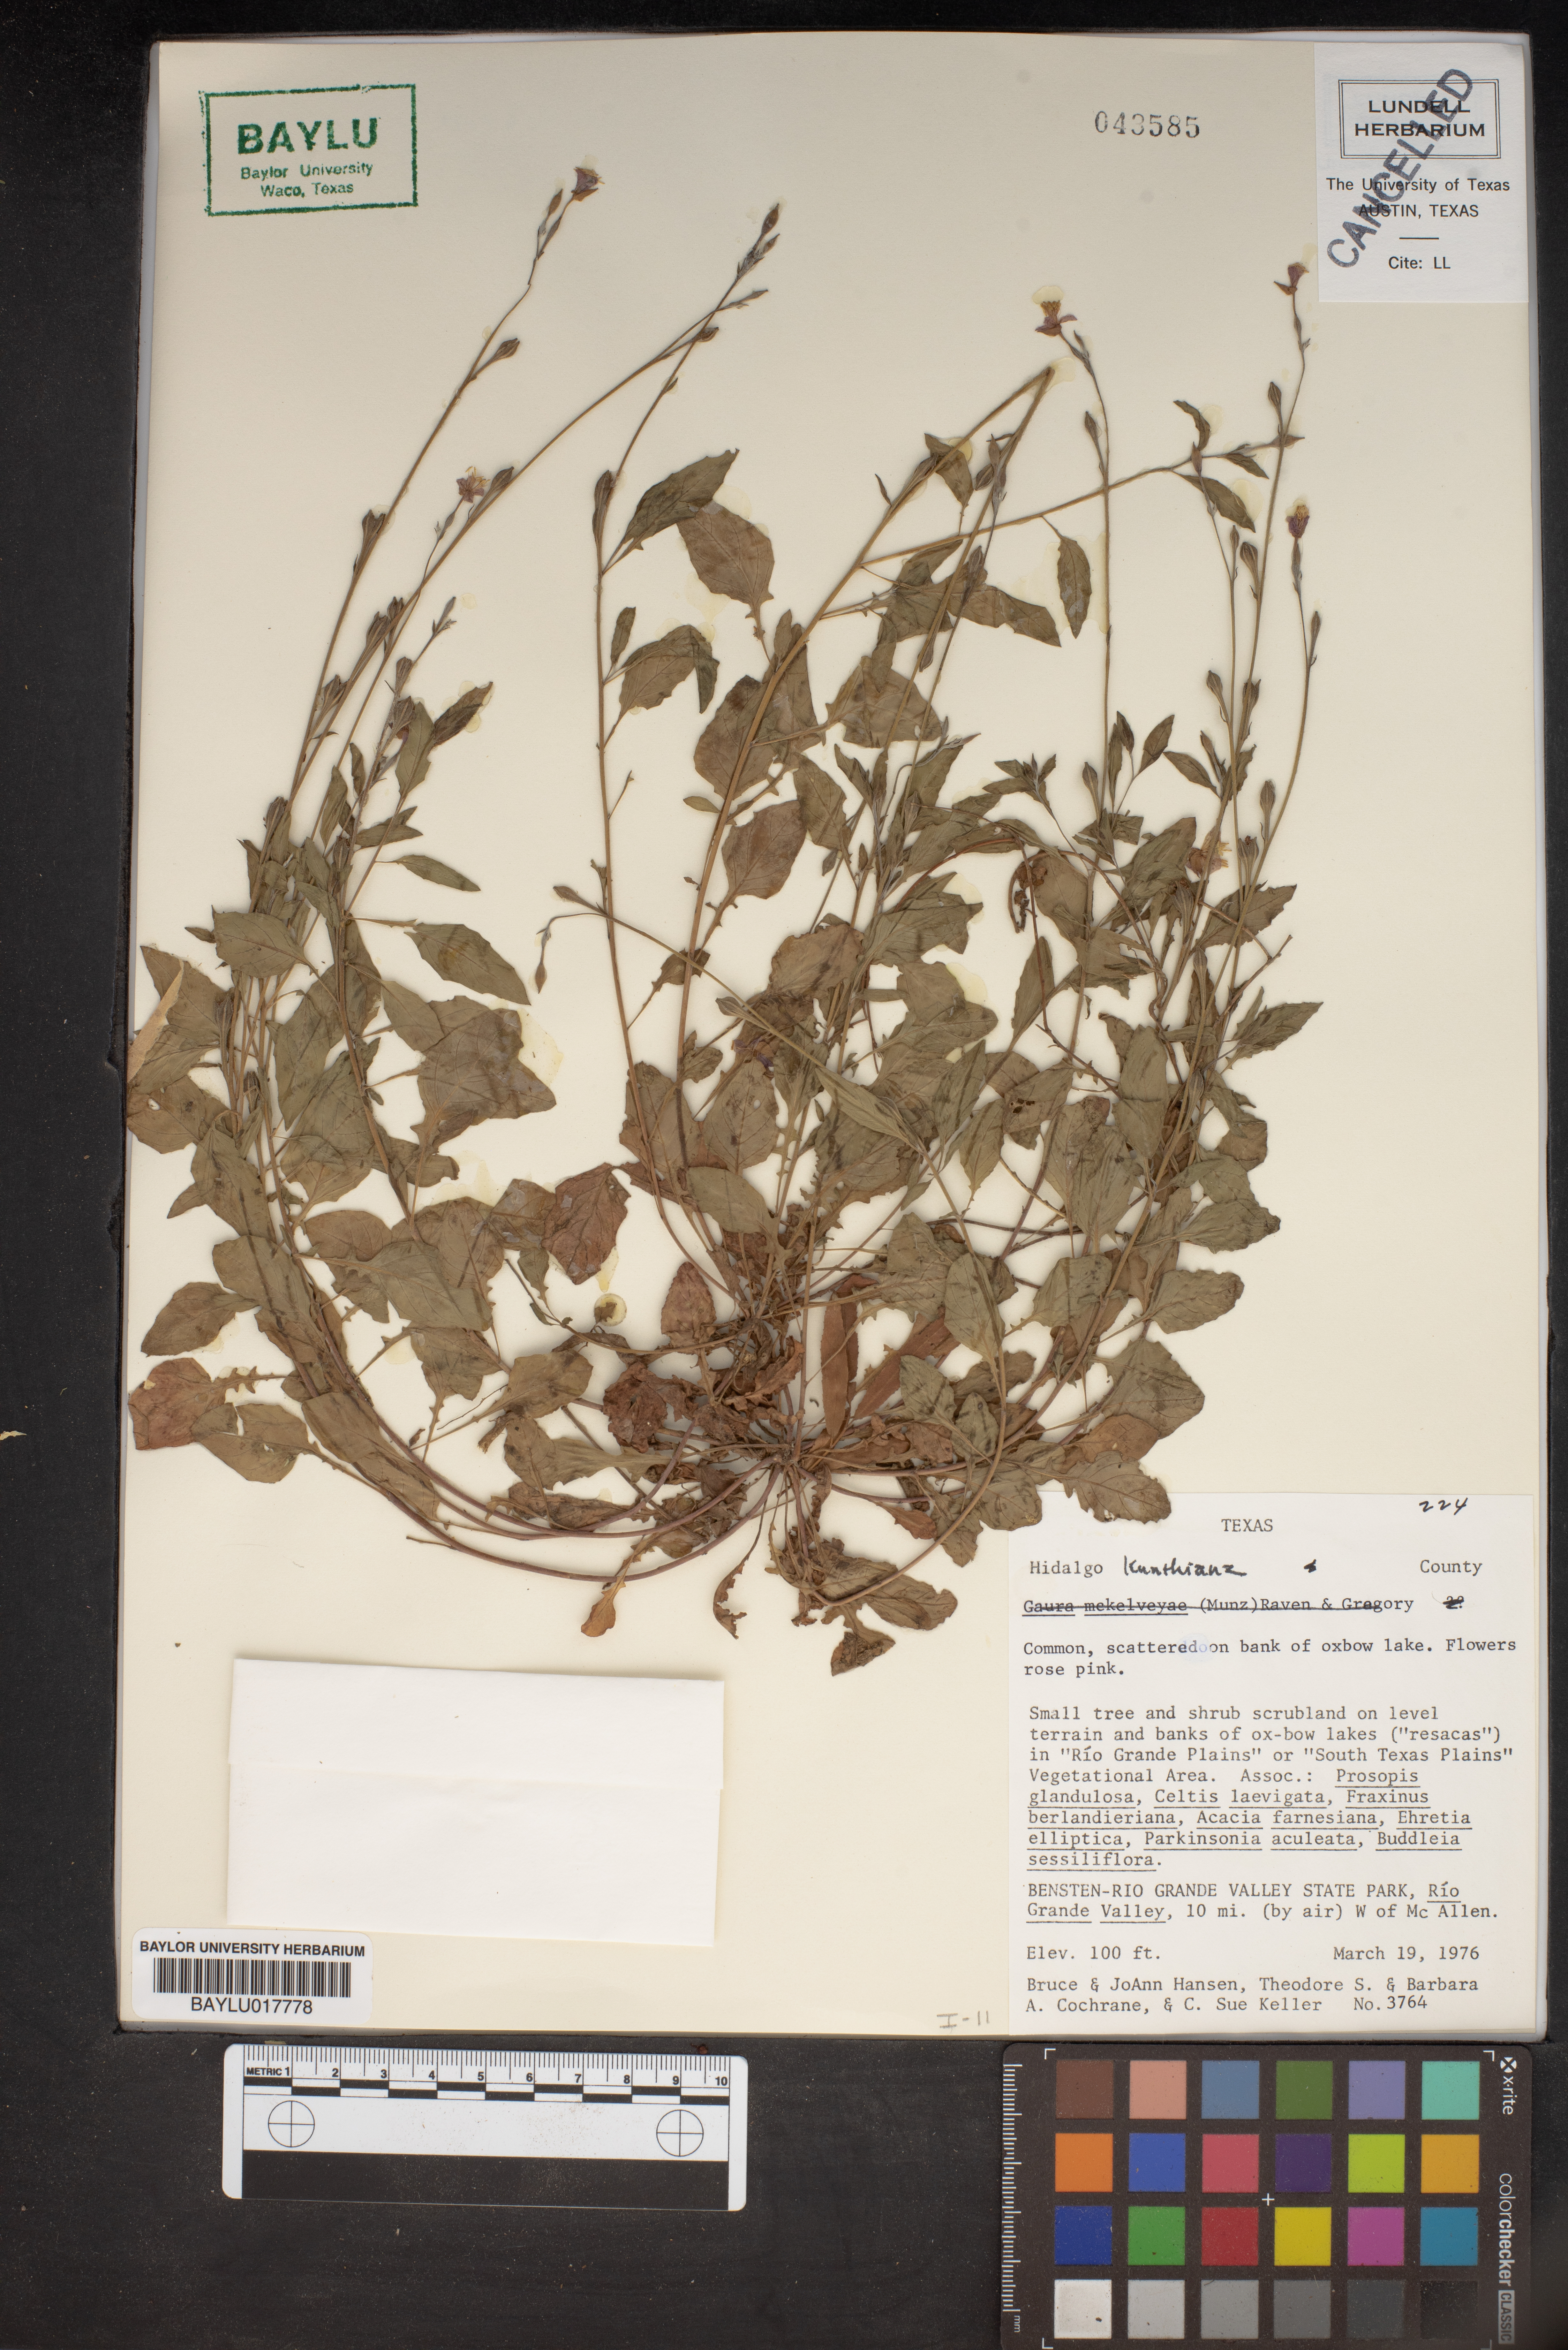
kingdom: Animalia
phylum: Arthropoda
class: Insecta
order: Lepidoptera
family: Geometridae
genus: Hidalgo
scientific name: Hidalgo
